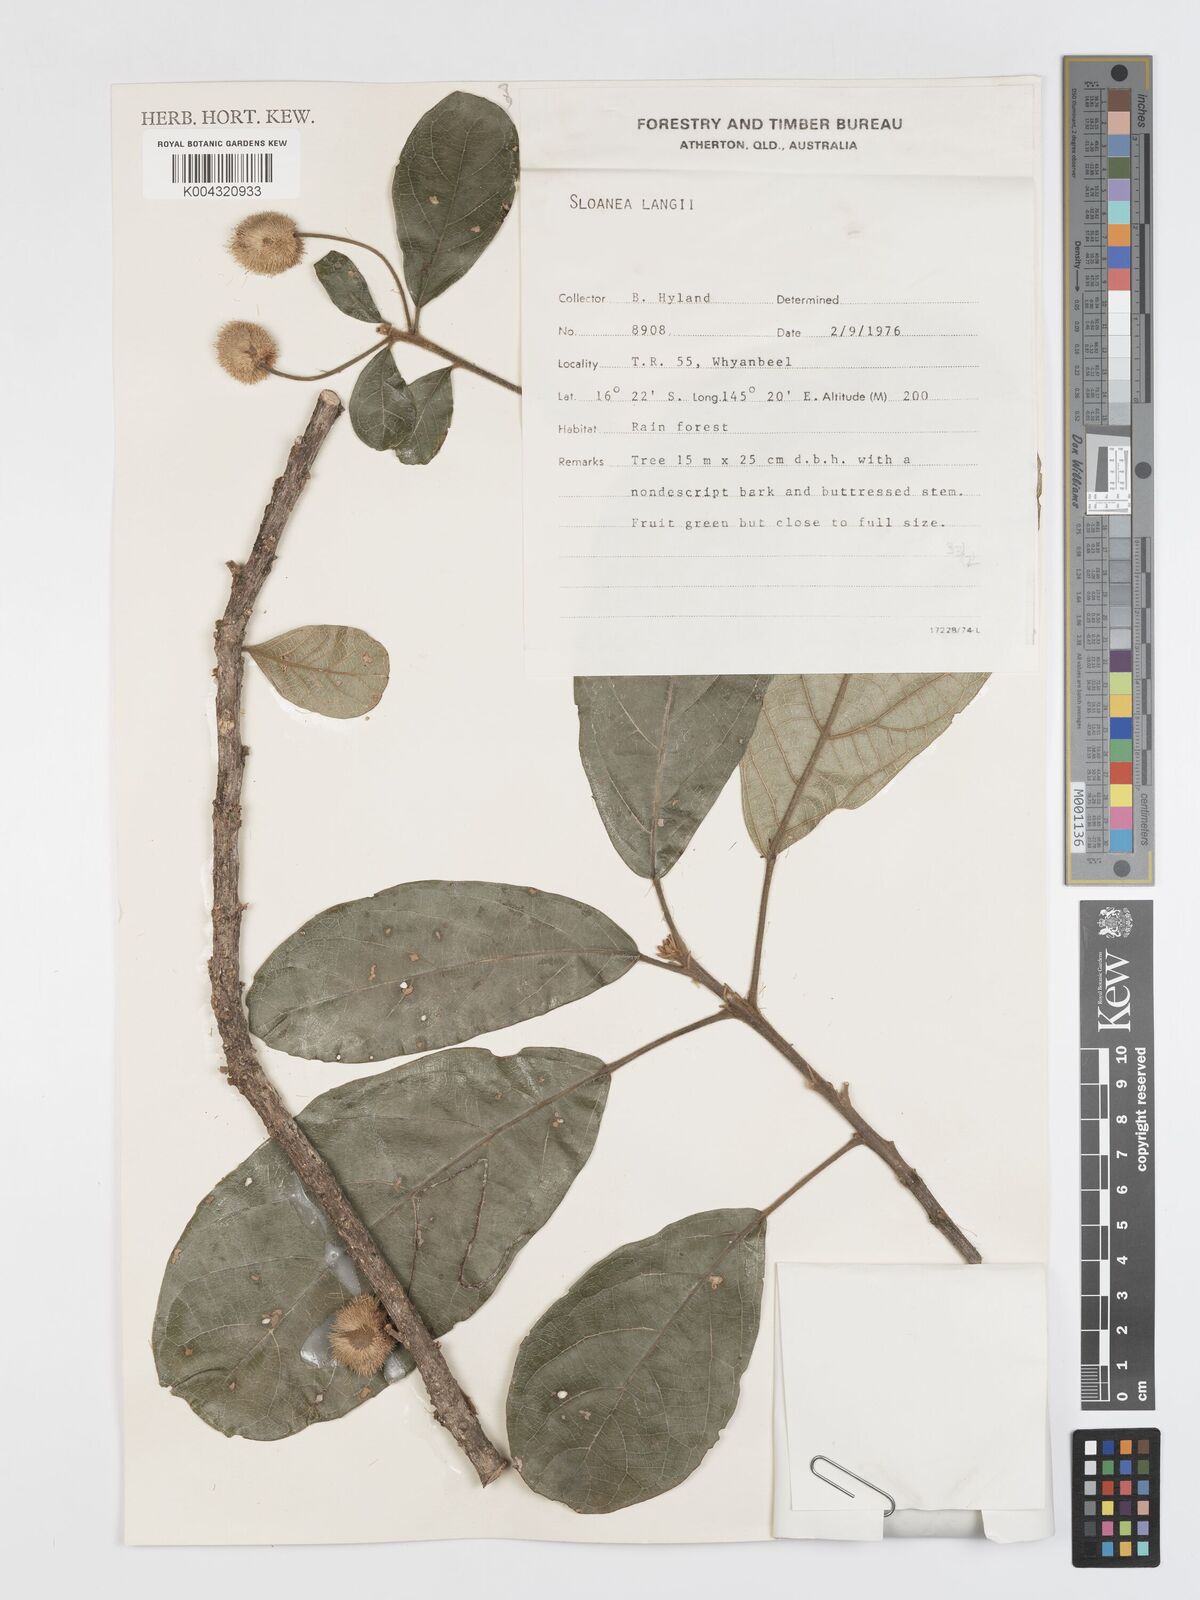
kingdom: Plantae
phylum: Tracheophyta
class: Magnoliopsida
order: Oxalidales
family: Elaeocarpaceae
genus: Sloanea
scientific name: Sloanea langii
